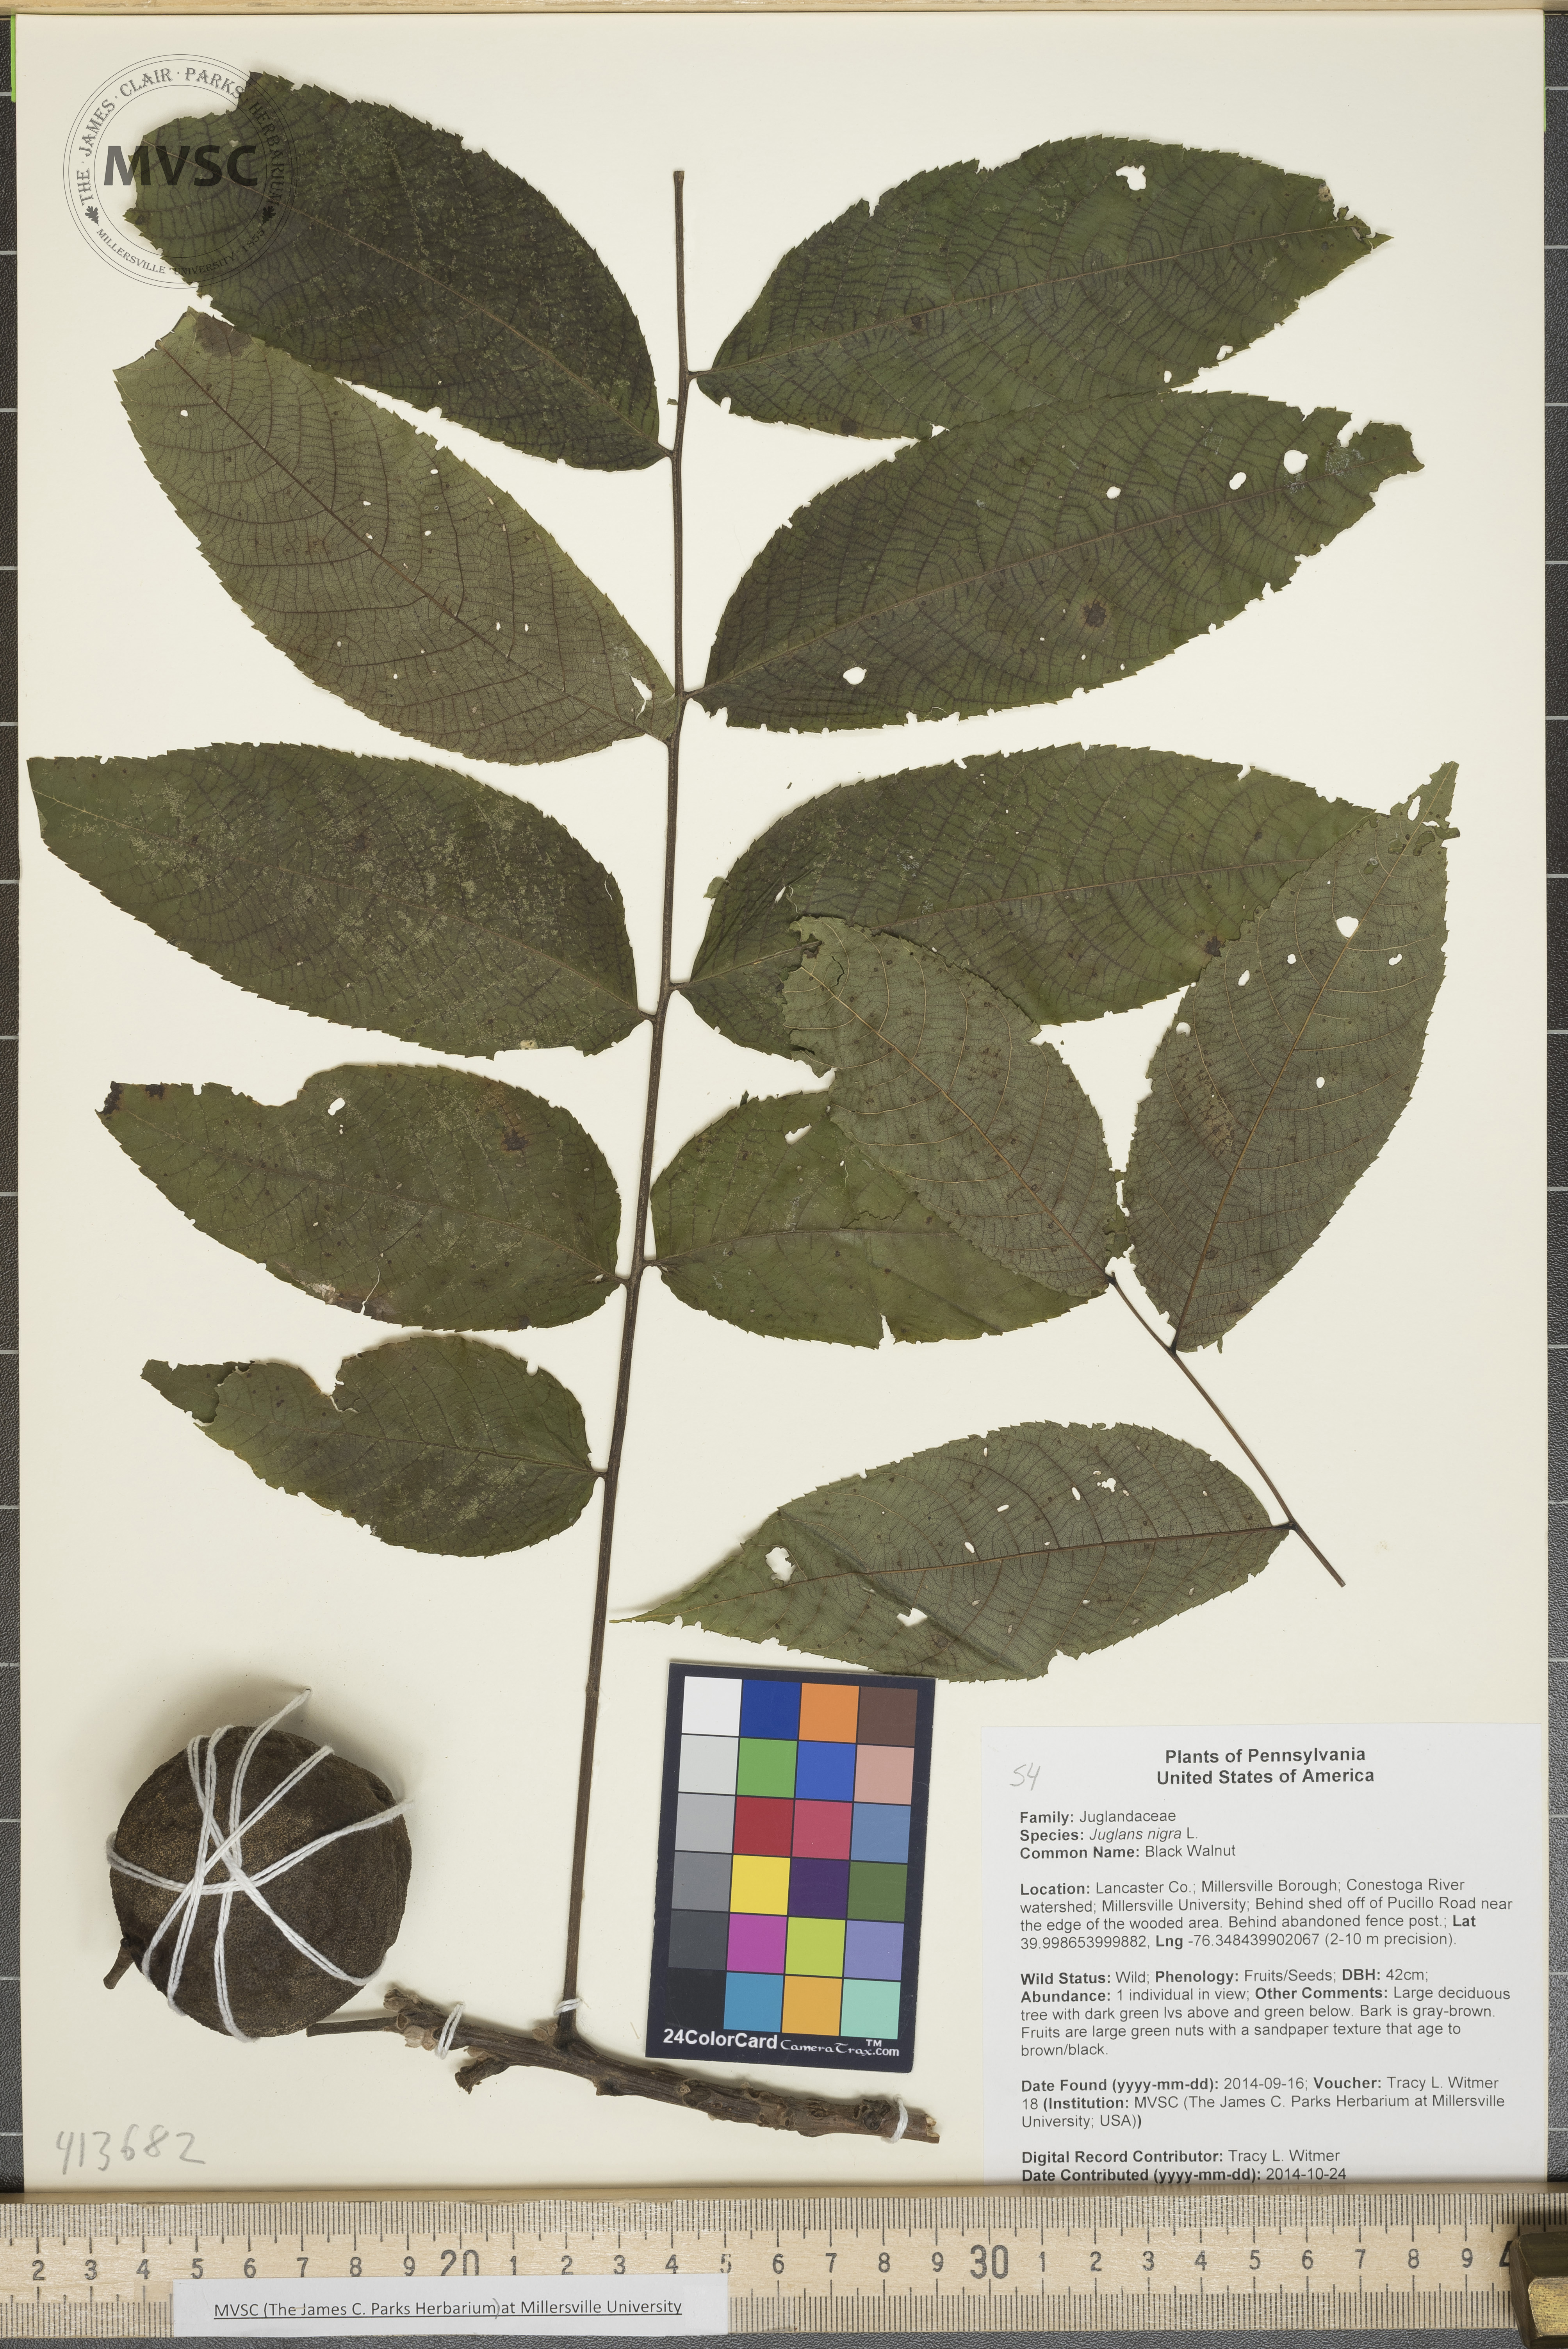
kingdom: Plantae
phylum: Tracheophyta
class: Magnoliopsida
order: Fagales
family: Juglandaceae
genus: Juglans
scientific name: Juglans nigra
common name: Black Walnut
